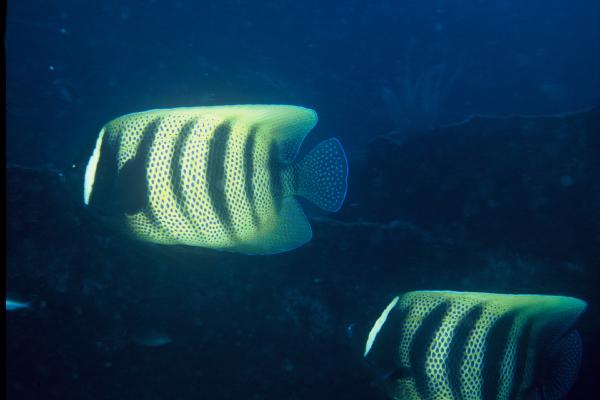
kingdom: Animalia
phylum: Chordata
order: Perciformes
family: Pomacanthidae
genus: Pomacanthus
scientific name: Pomacanthus sexstriatus
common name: Six-banded angelfish
